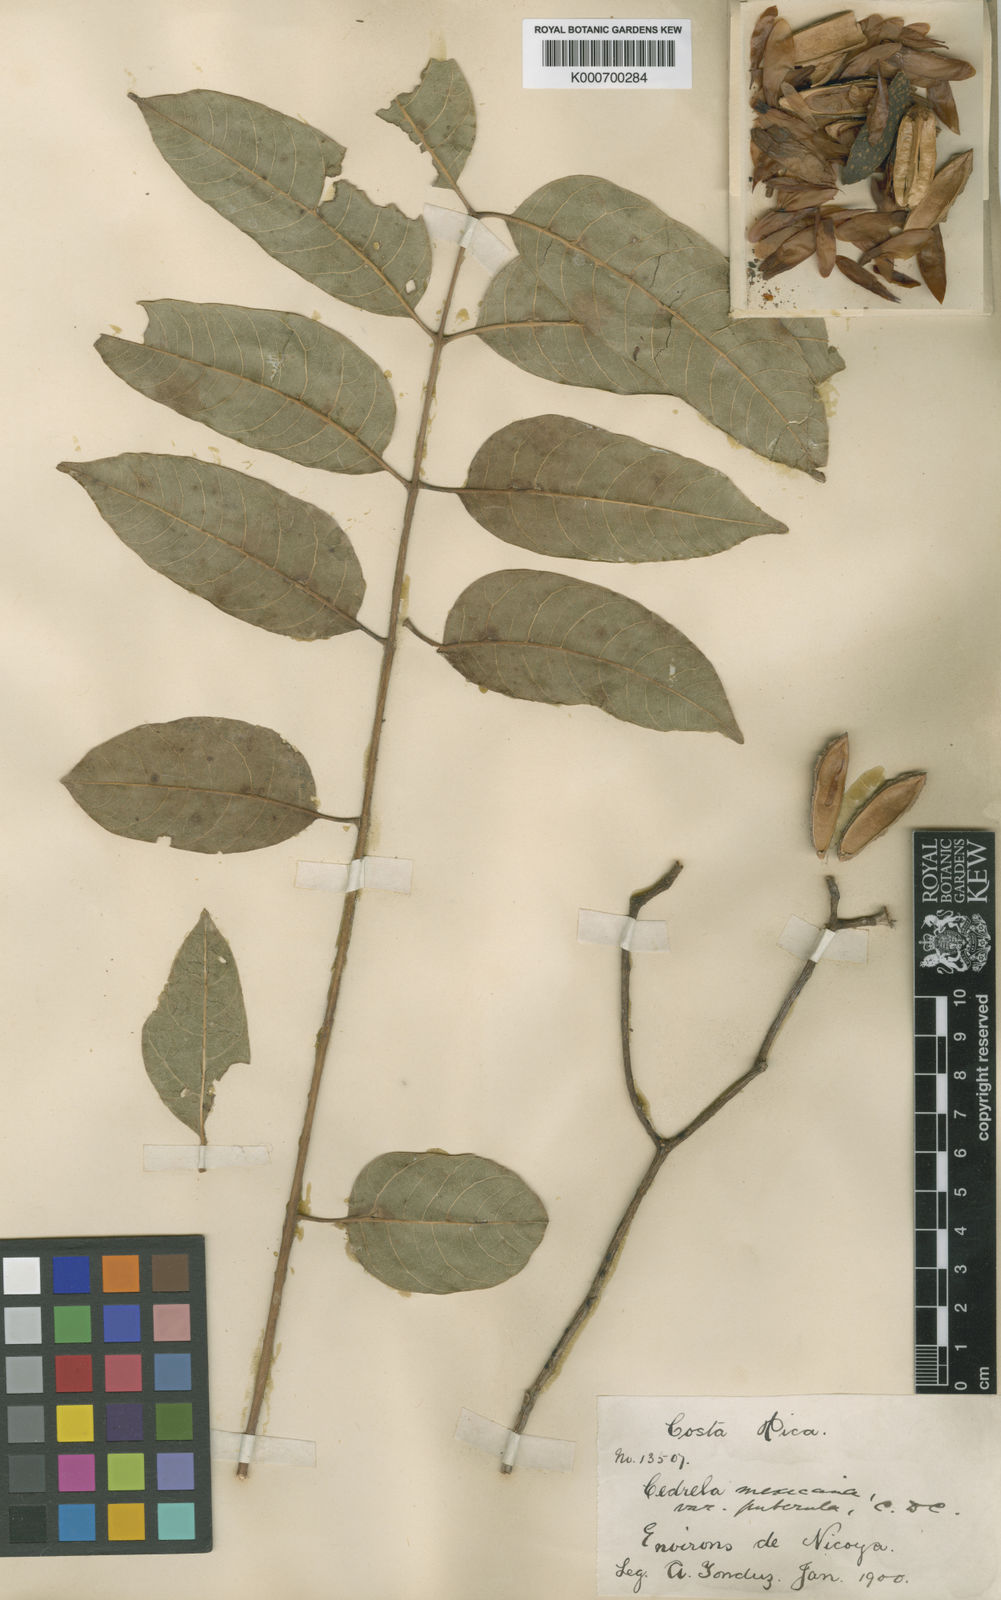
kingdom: Plantae
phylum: Tracheophyta
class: Magnoliopsida
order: Sapindales
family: Meliaceae
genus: Cedrela
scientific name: Cedrela odorata
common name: Red cedar
